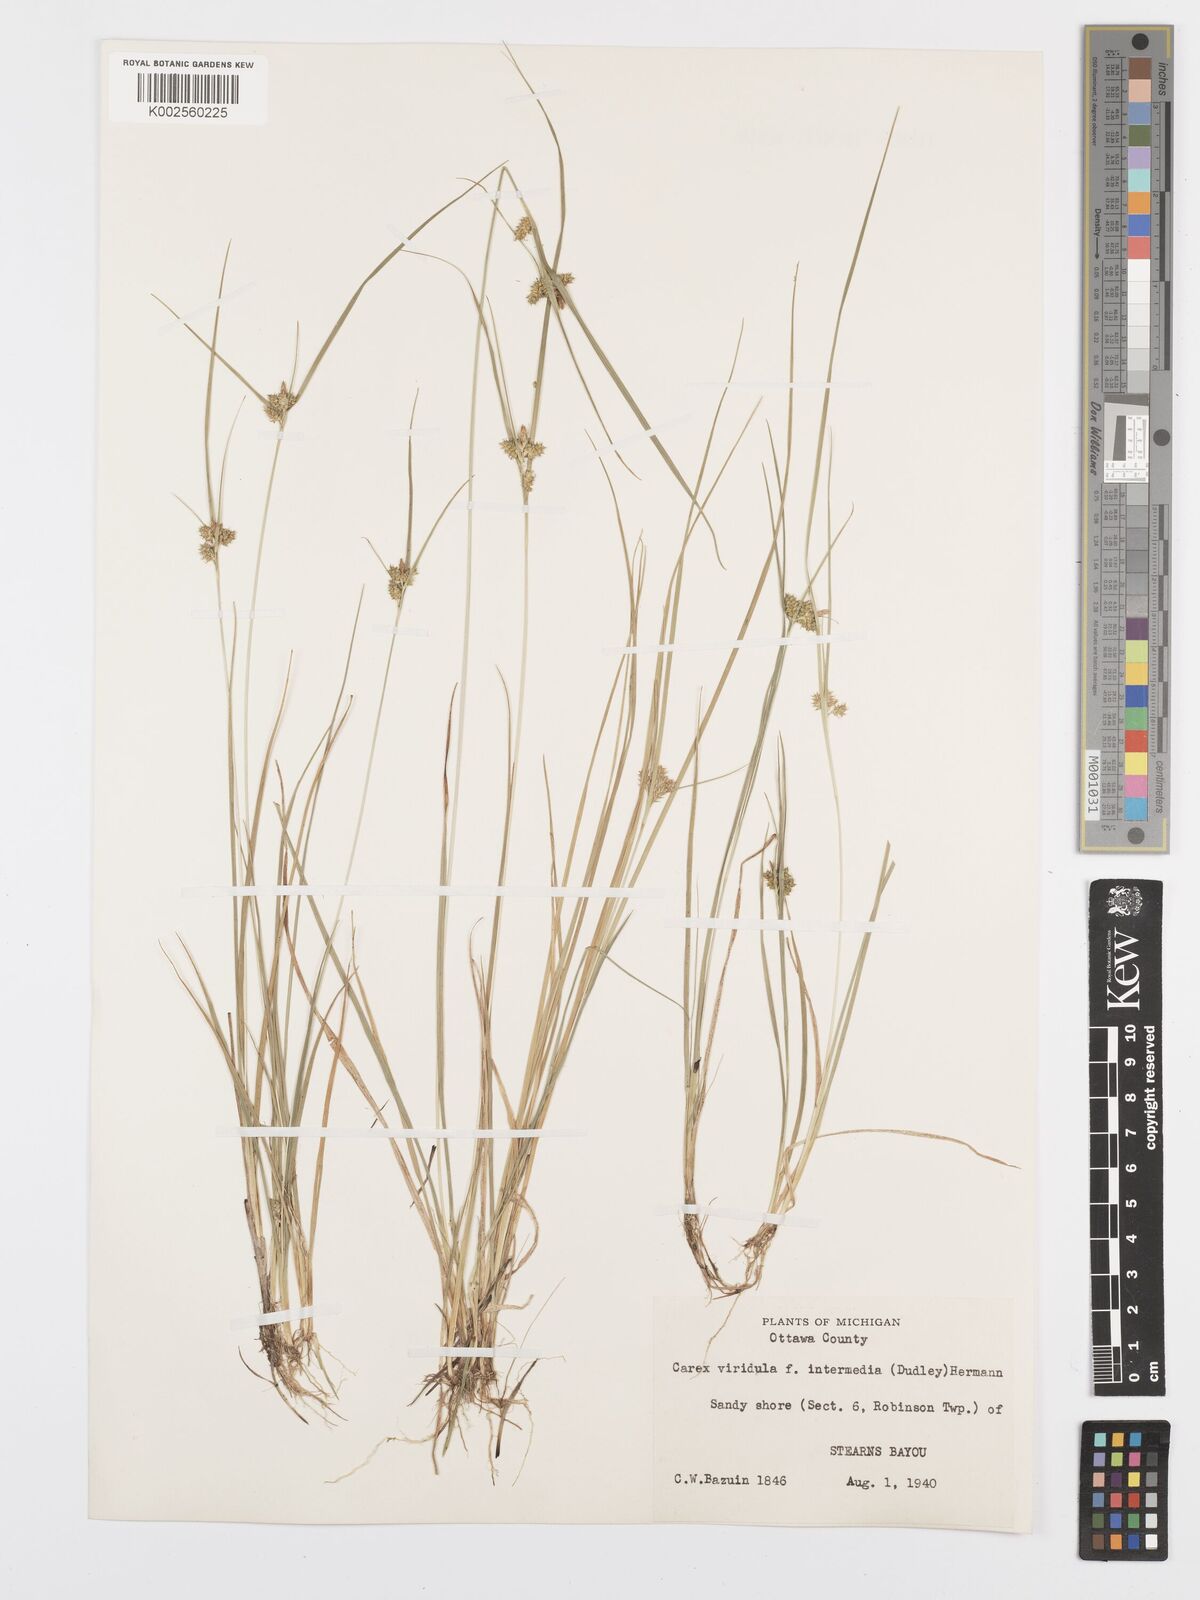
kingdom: Plantae
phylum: Tracheophyta
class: Liliopsida
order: Poales
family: Cyperaceae
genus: Carex
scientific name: Carex oederi
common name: Common & small-fruited yellow-sedge
